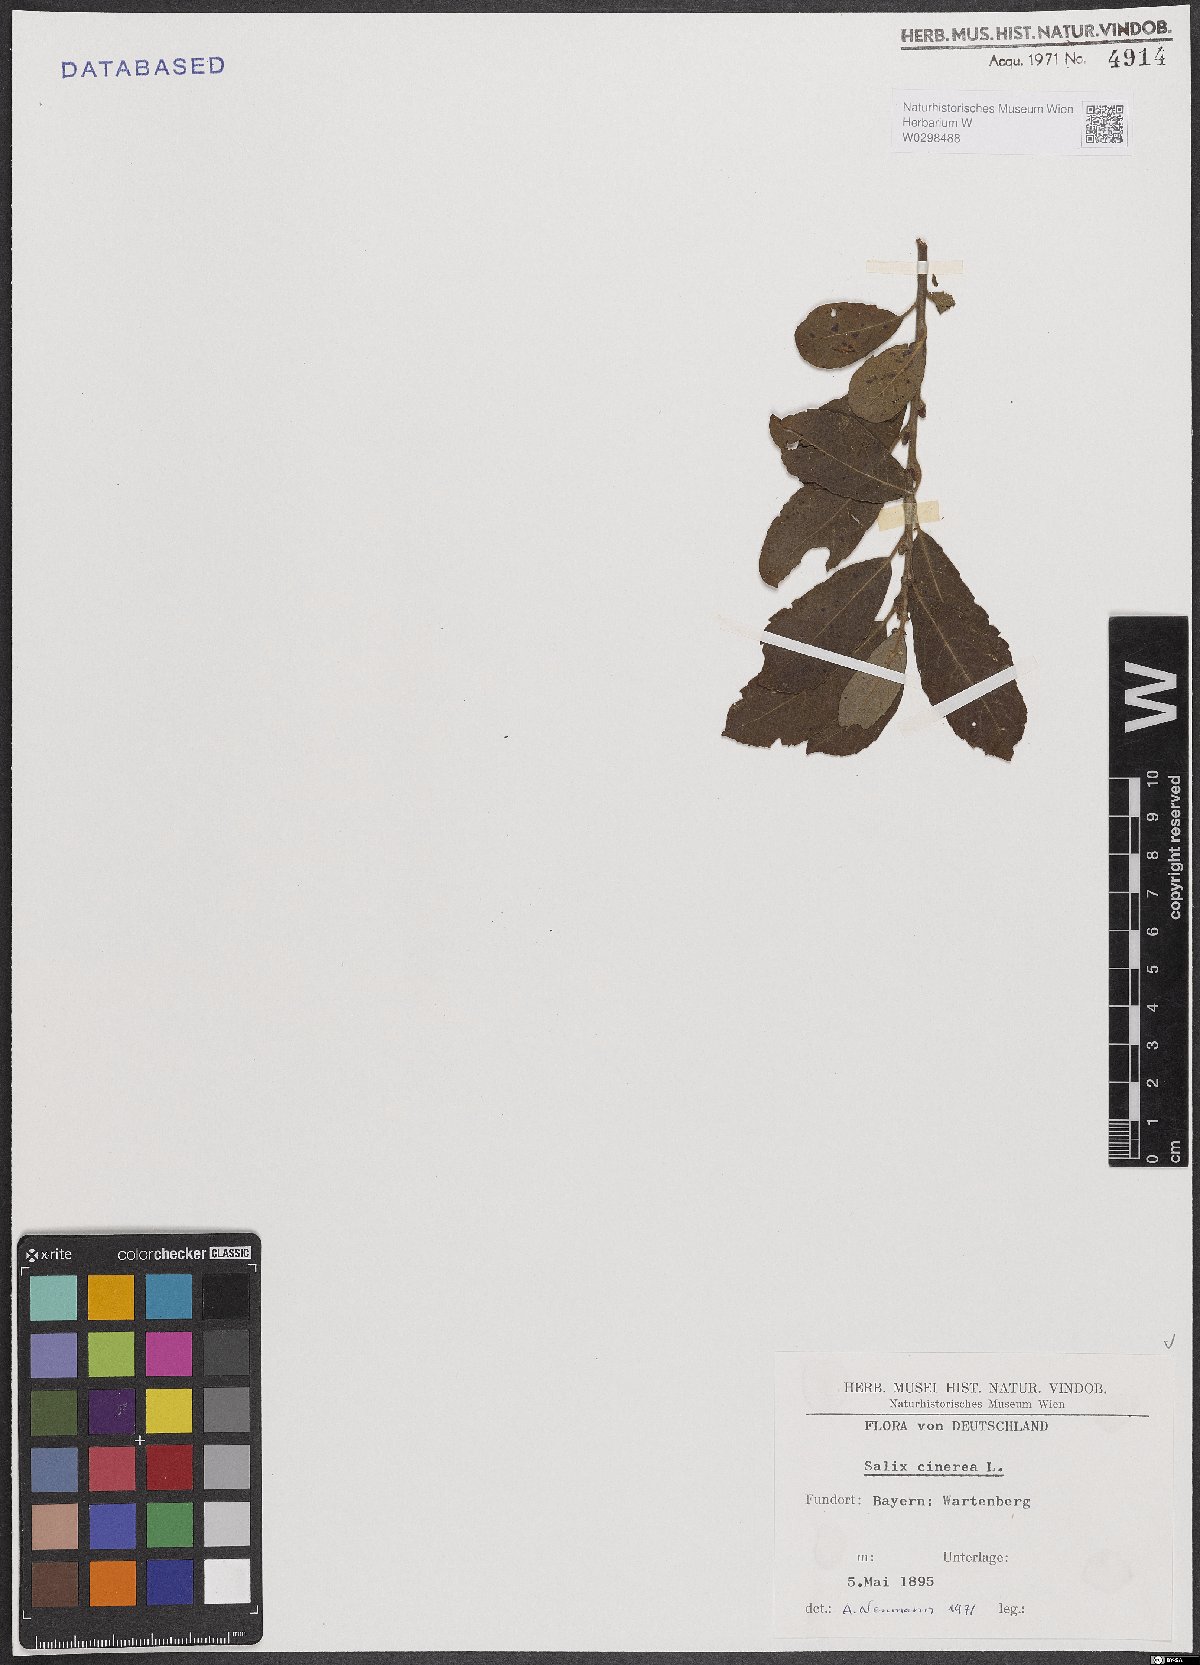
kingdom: Plantae
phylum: Tracheophyta
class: Magnoliopsida
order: Malpighiales
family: Salicaceae
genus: Salix
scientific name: Salix cinerea
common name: Common sallow
